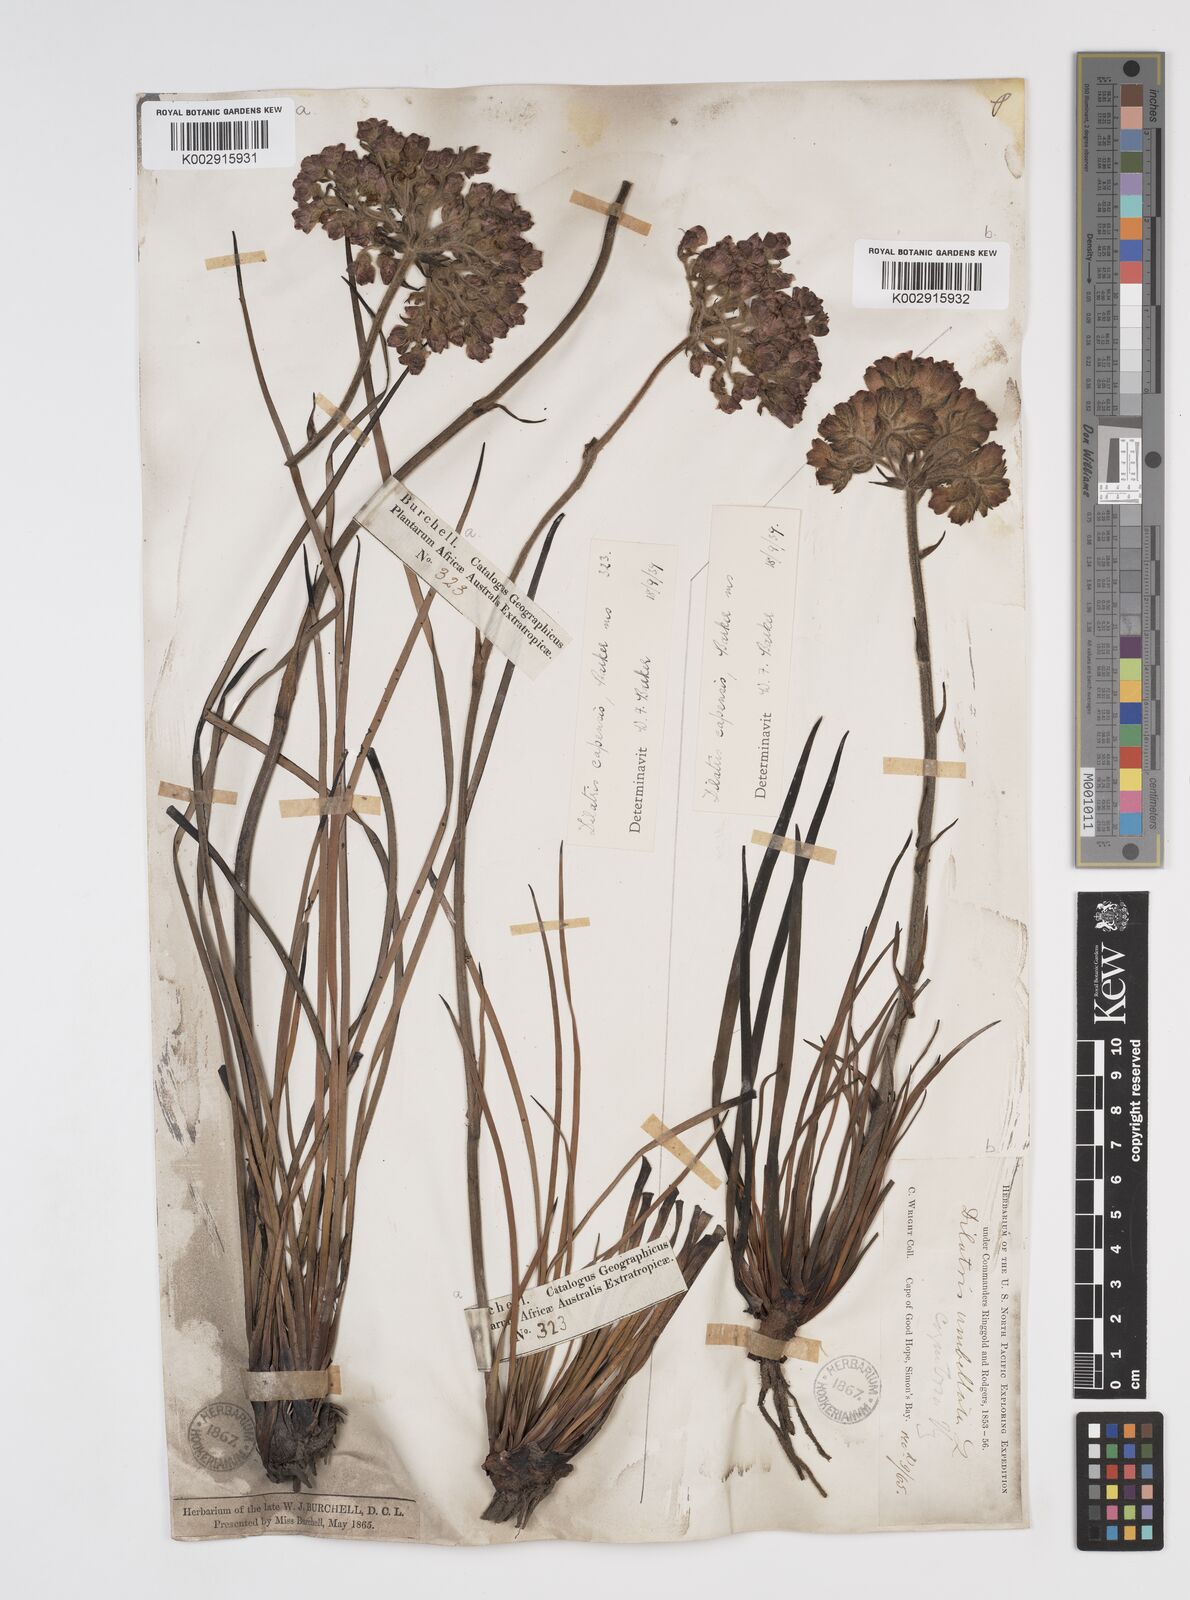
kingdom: Plantae
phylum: Tracheophyta
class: Liliopsida
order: Commelinales
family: Haemodoraceae
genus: Dilatris
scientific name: Dilatris pillansii
